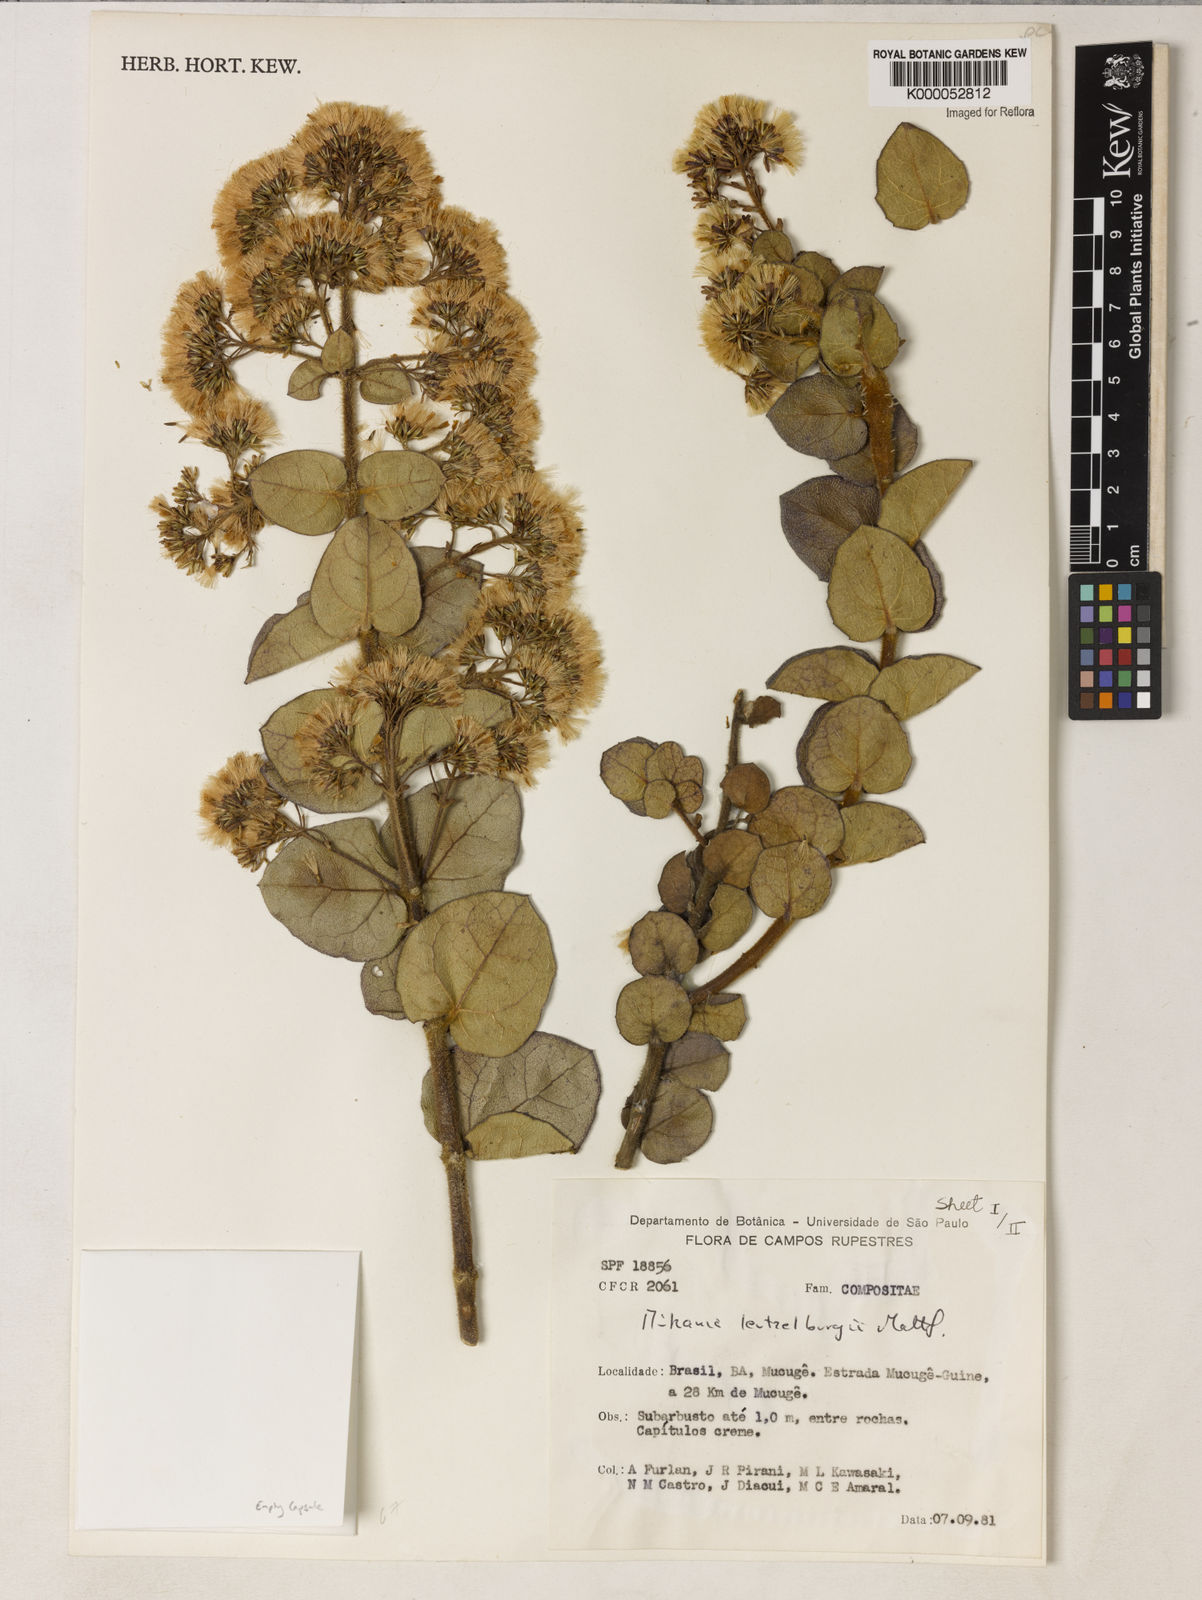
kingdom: Plantae
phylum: Tracheophyta
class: Magnoliopsida
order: Asterales
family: Asteraceae
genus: Mikania
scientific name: Mikania luetzelburgii
